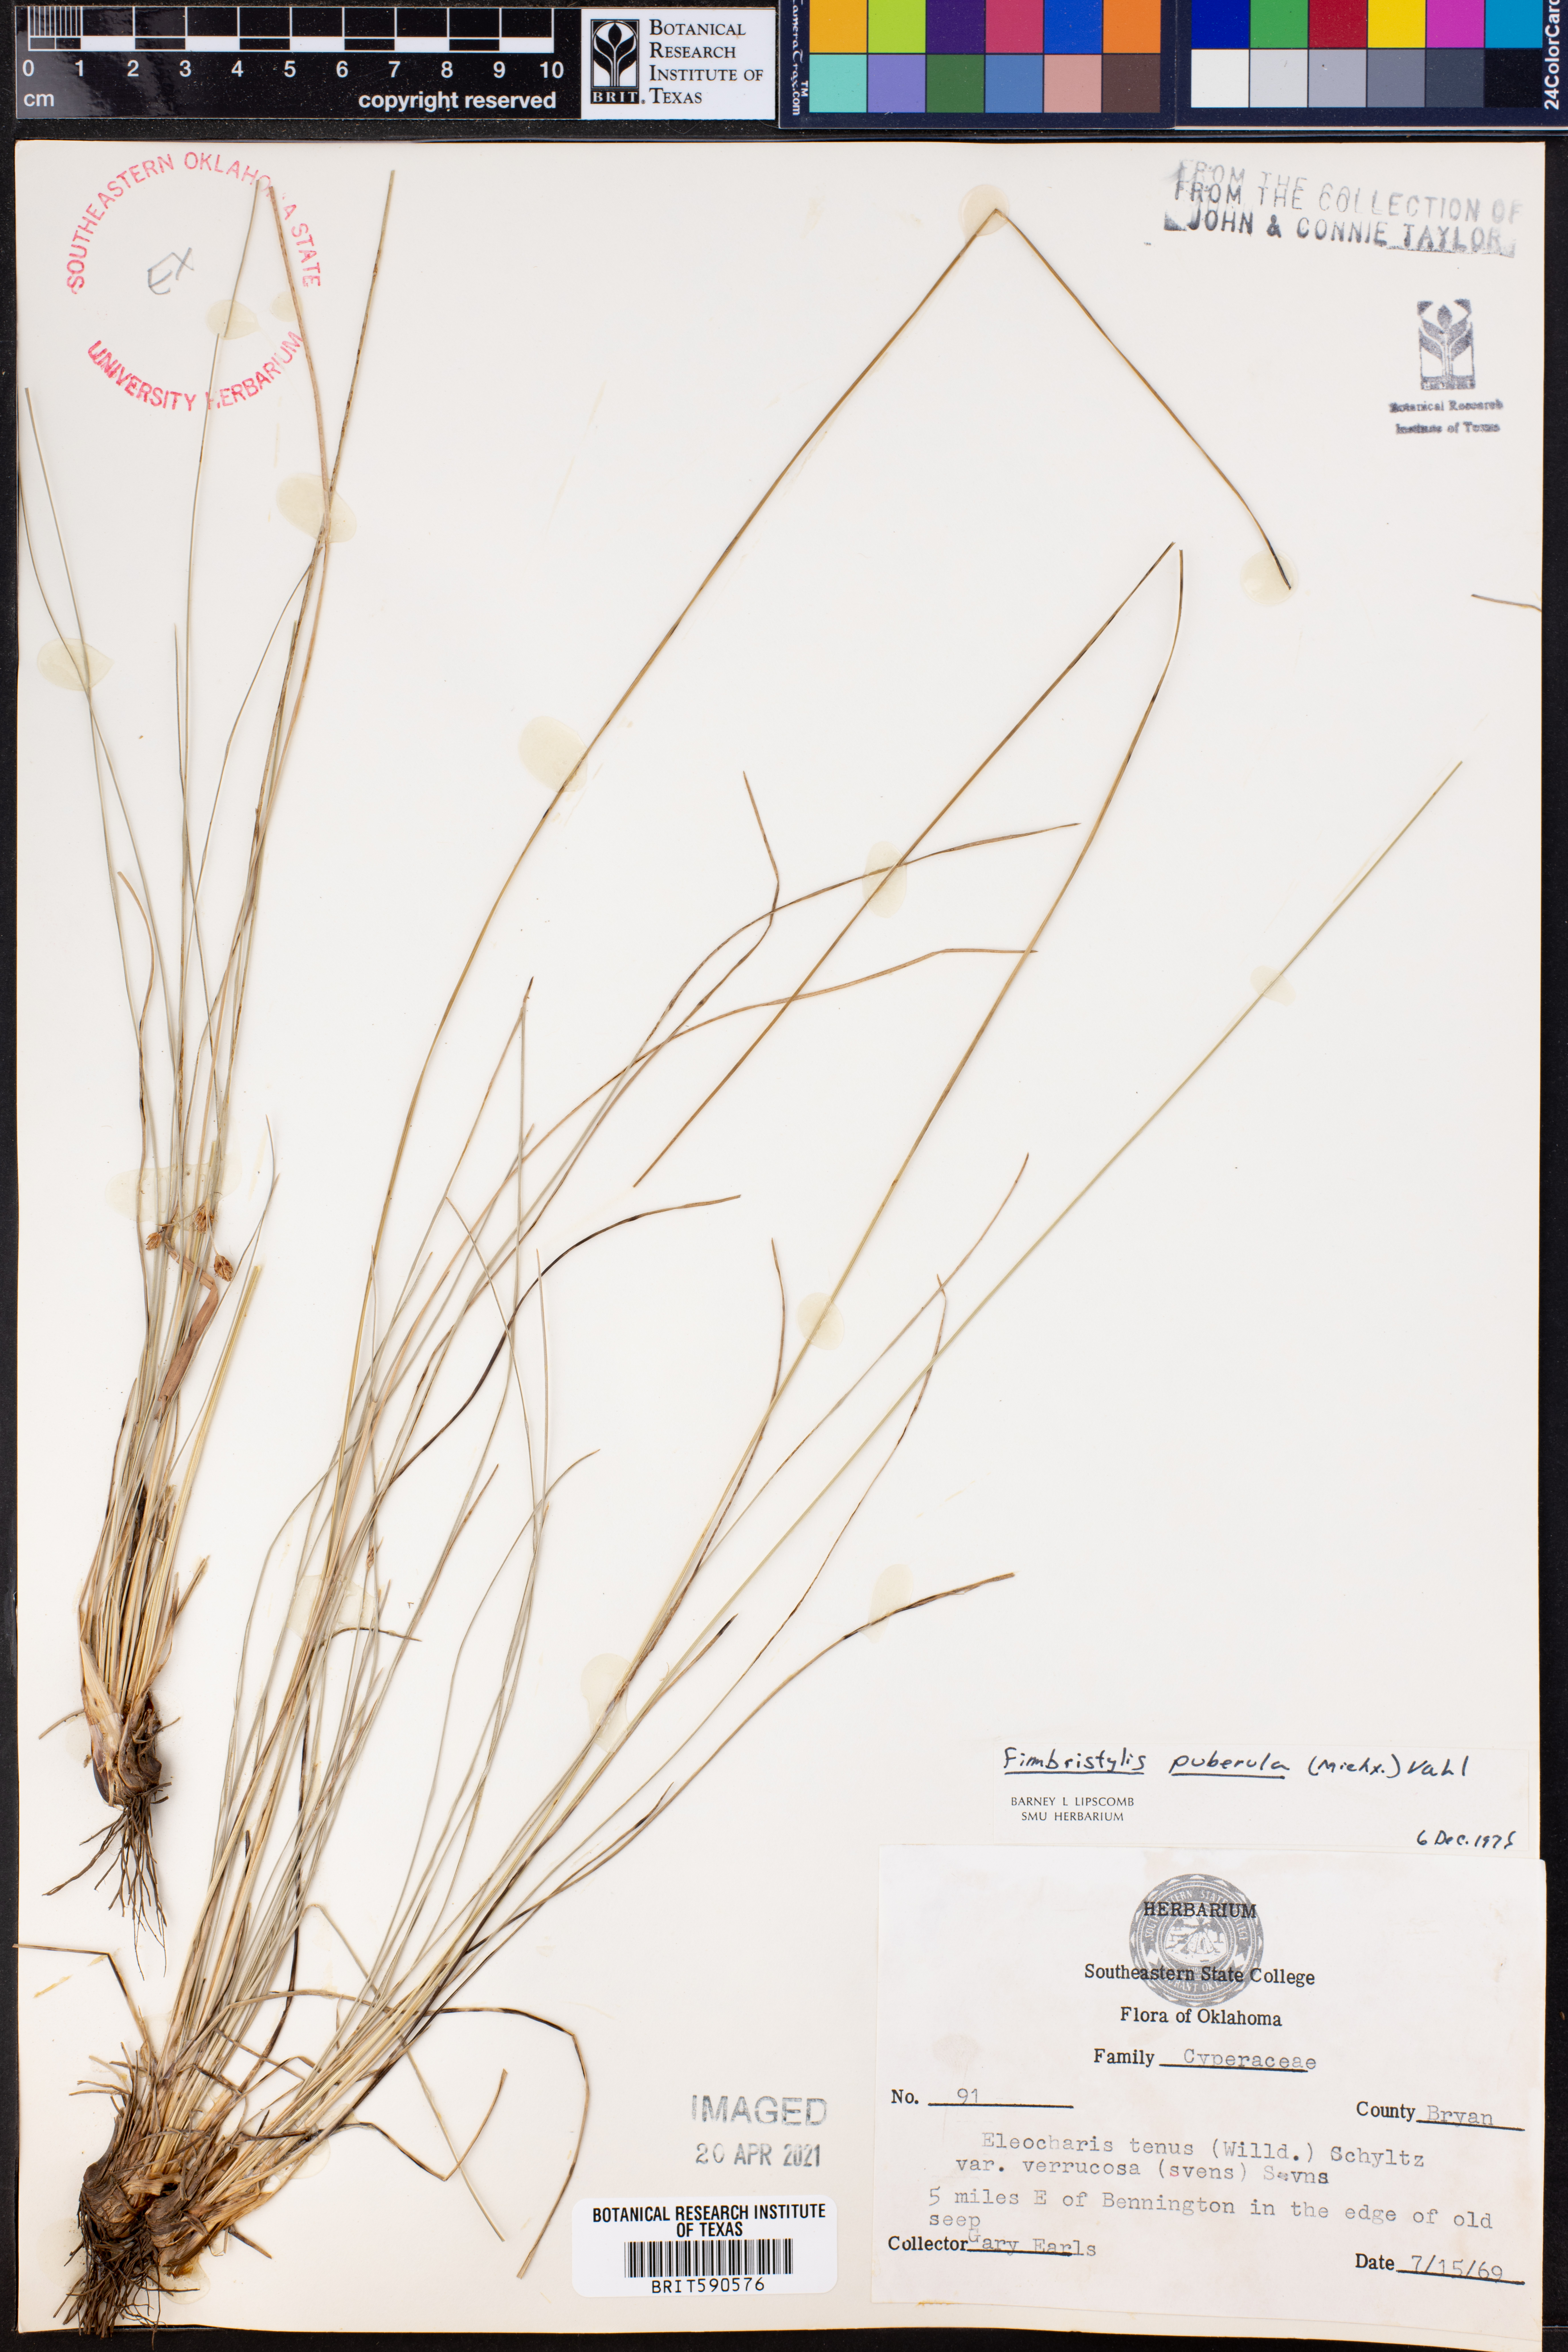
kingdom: Plantae
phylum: Tracheophyta
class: Liliopsida
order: Poales
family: Cyperaceae
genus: Fimbristylis
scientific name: Fimbristylis puberula
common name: Hairy fimbristylis
